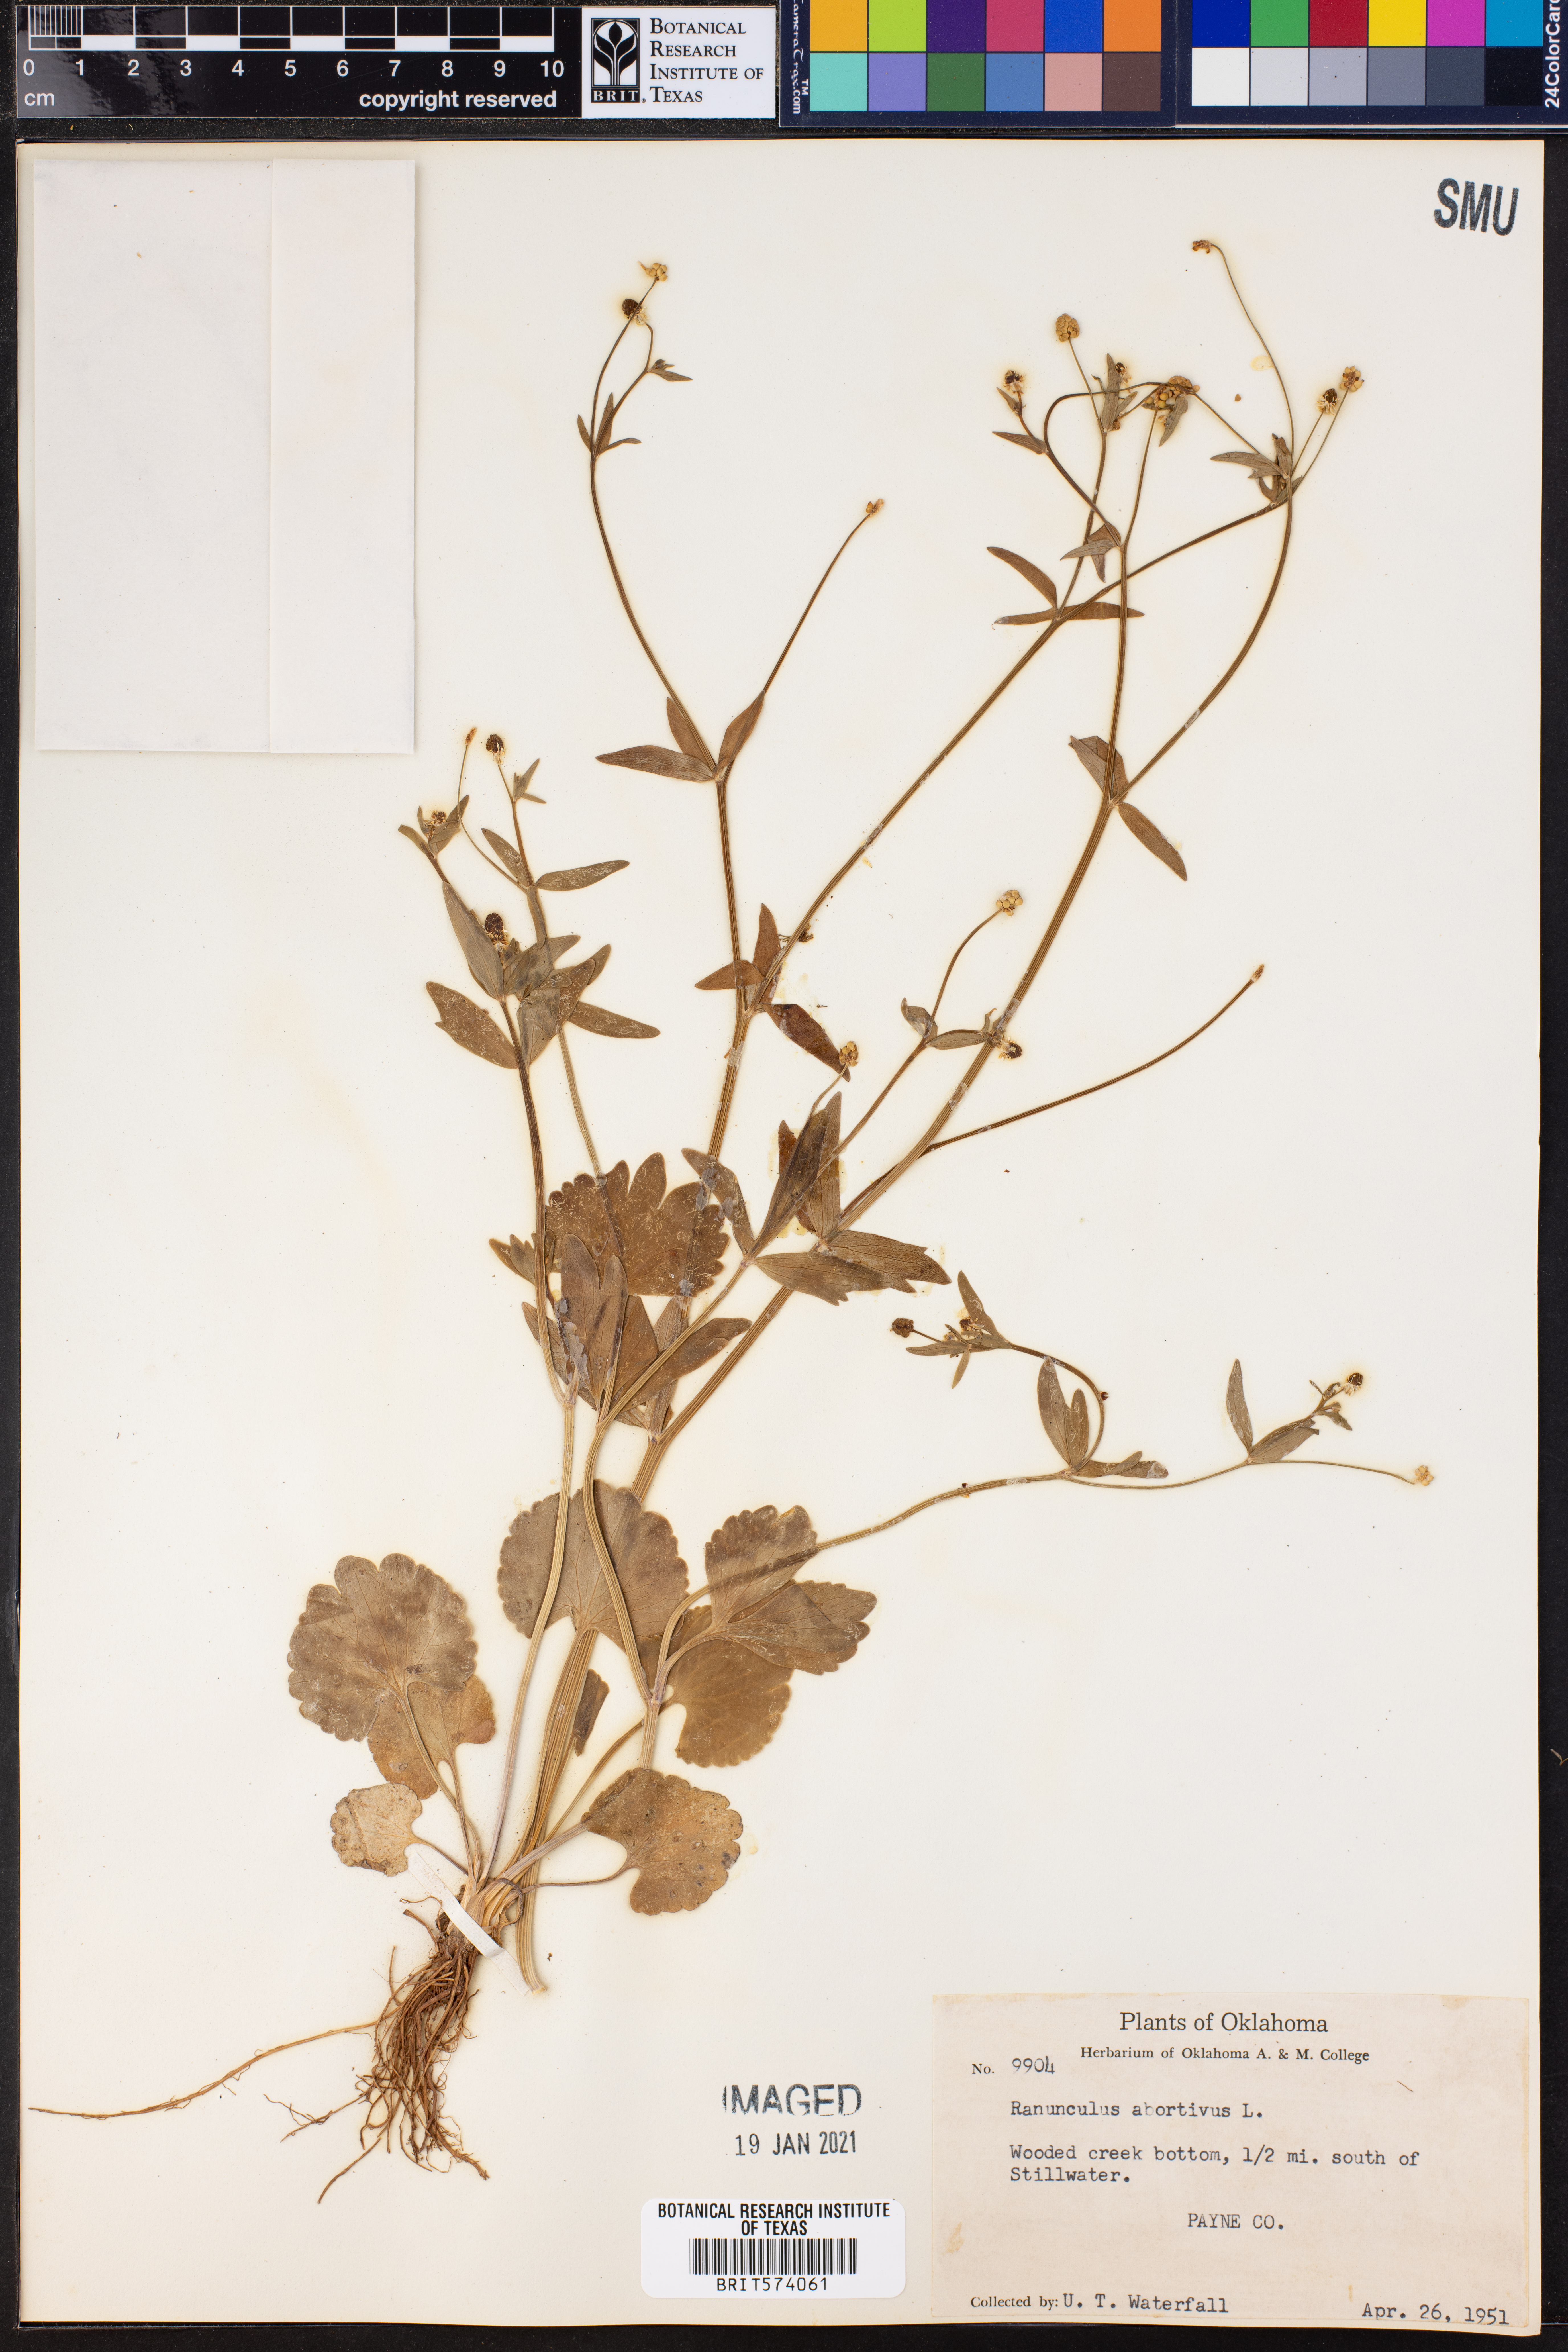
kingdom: Plantae
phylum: Tracheophyta
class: Magnoliopsida
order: Ranunculales
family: Ranunculaceae
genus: Ranunculus
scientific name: Ranunculus abortivus
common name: Early wood buttercup
